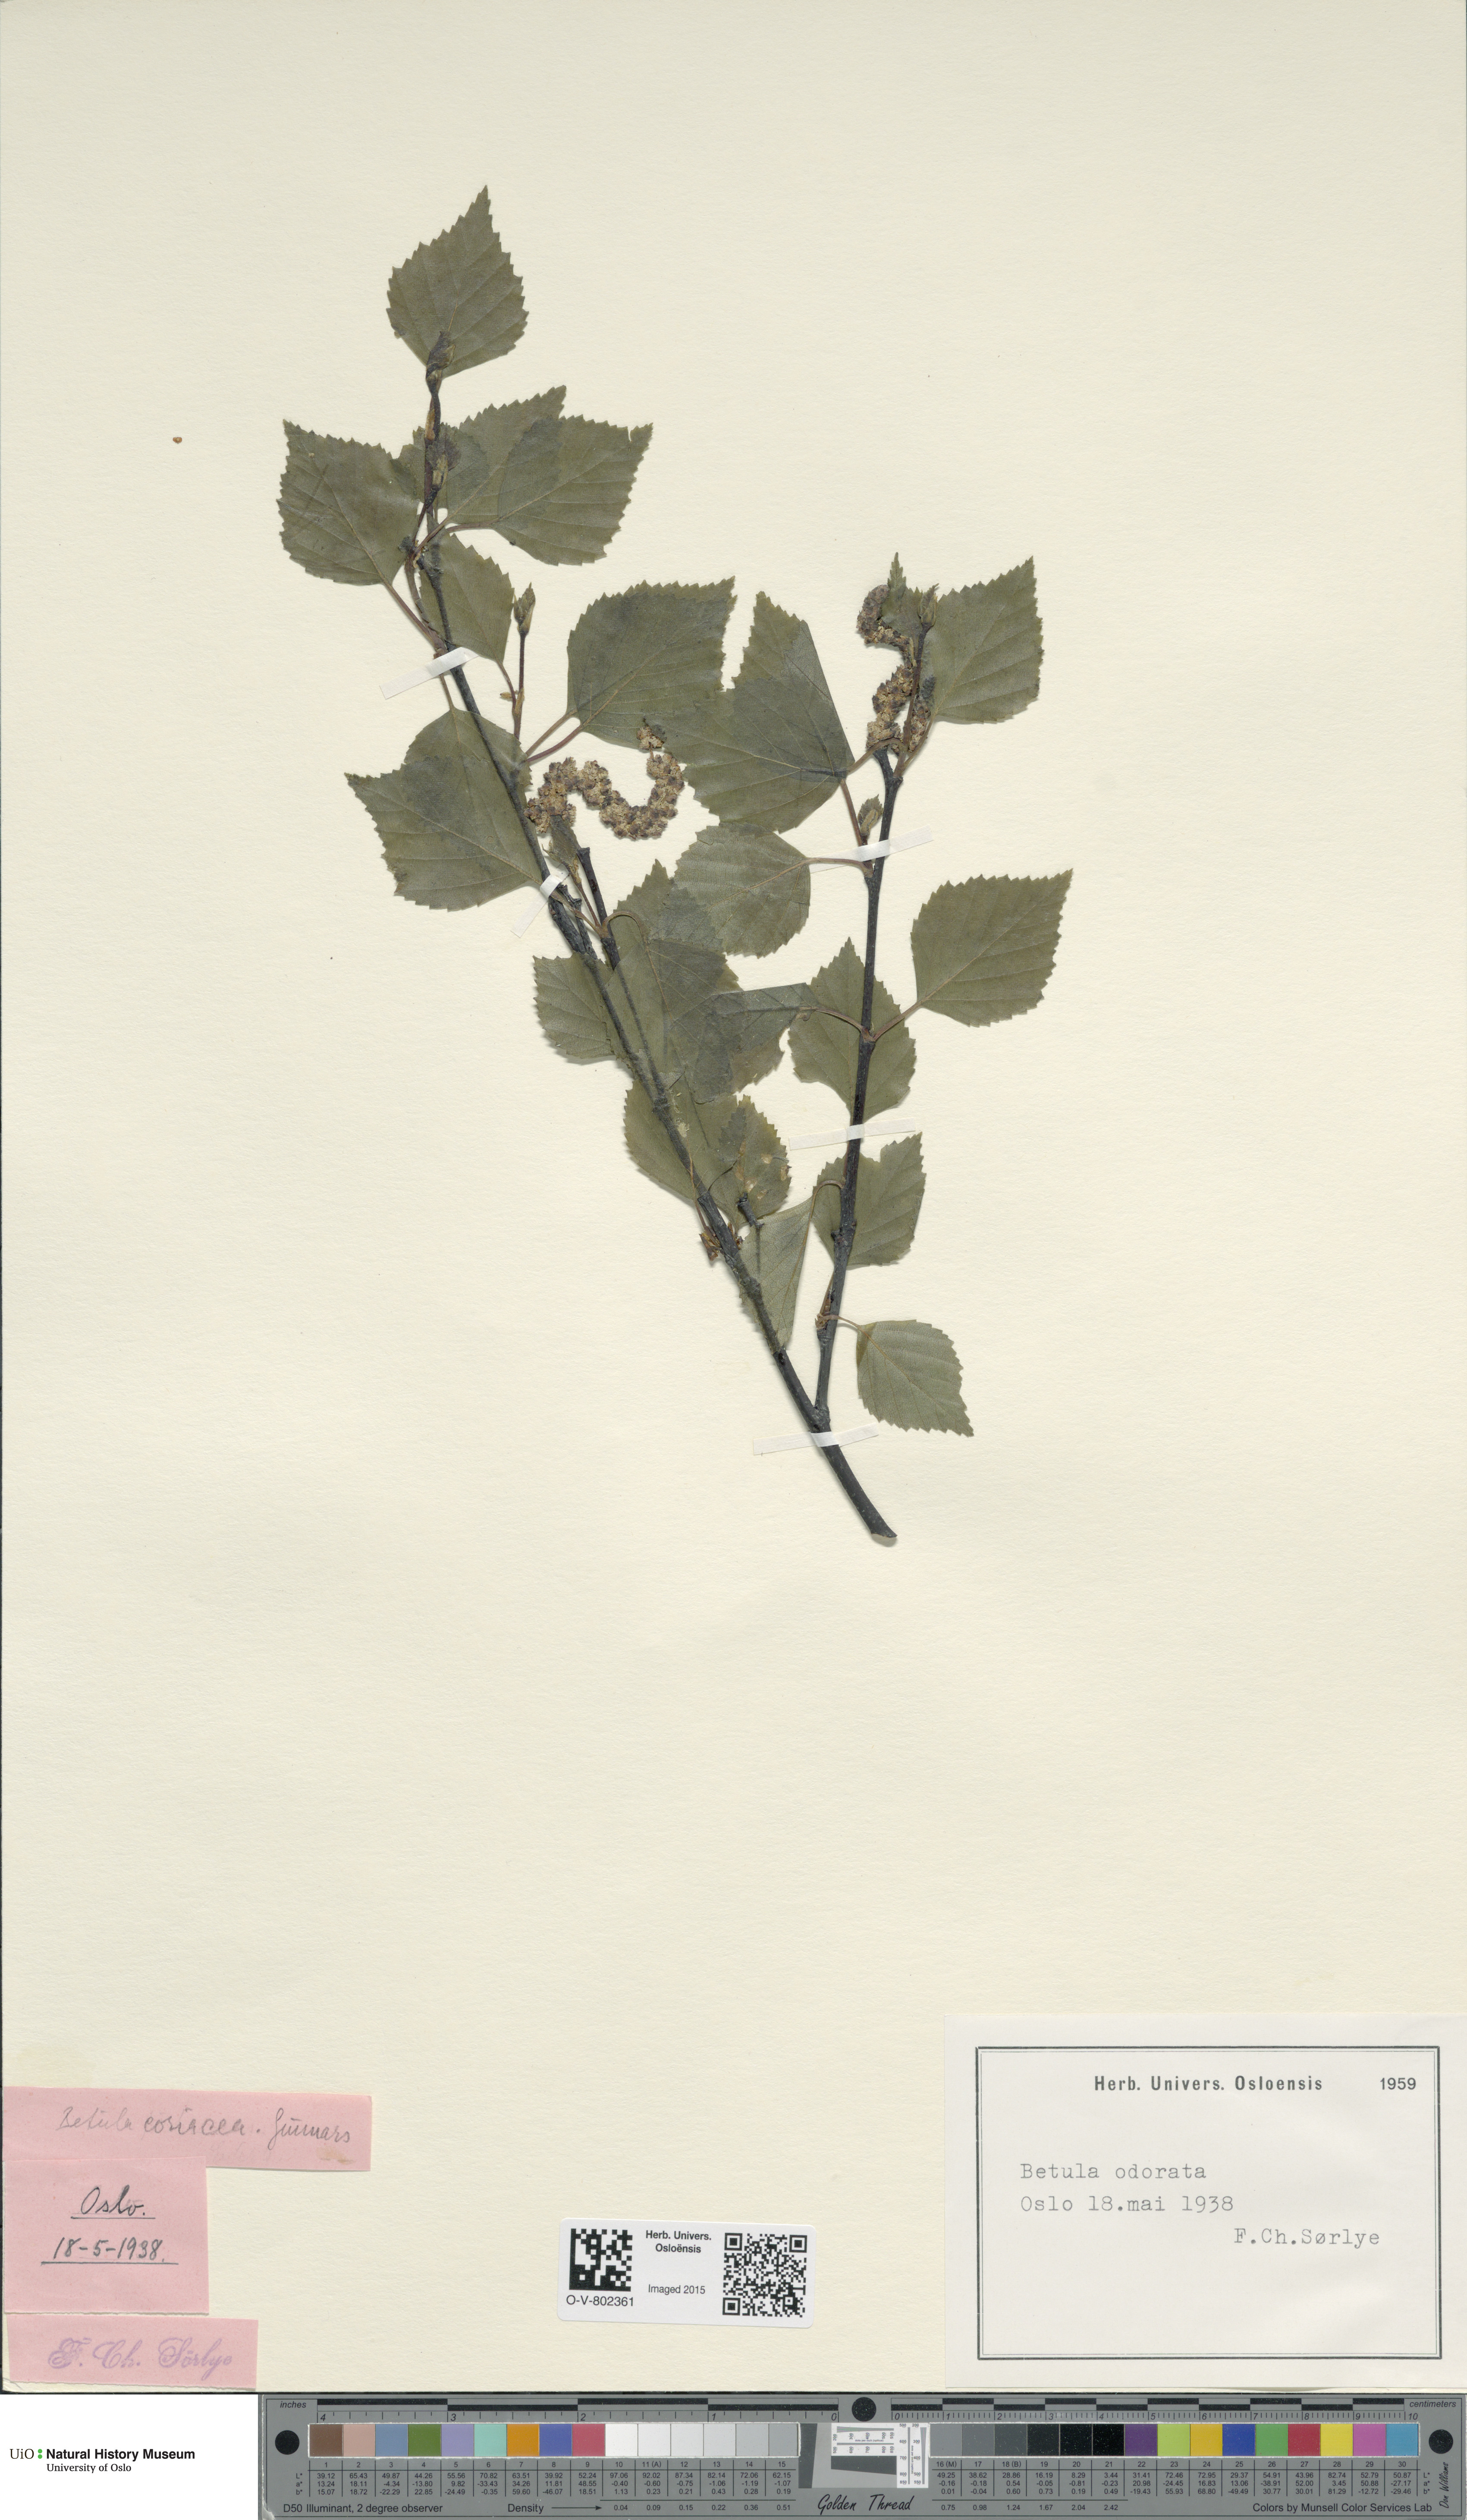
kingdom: Plantae
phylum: Tracheophyta
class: Magnoliopsida
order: Fagales
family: Betulaceae
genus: Betula
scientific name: Betula pubescens
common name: Downy birch
